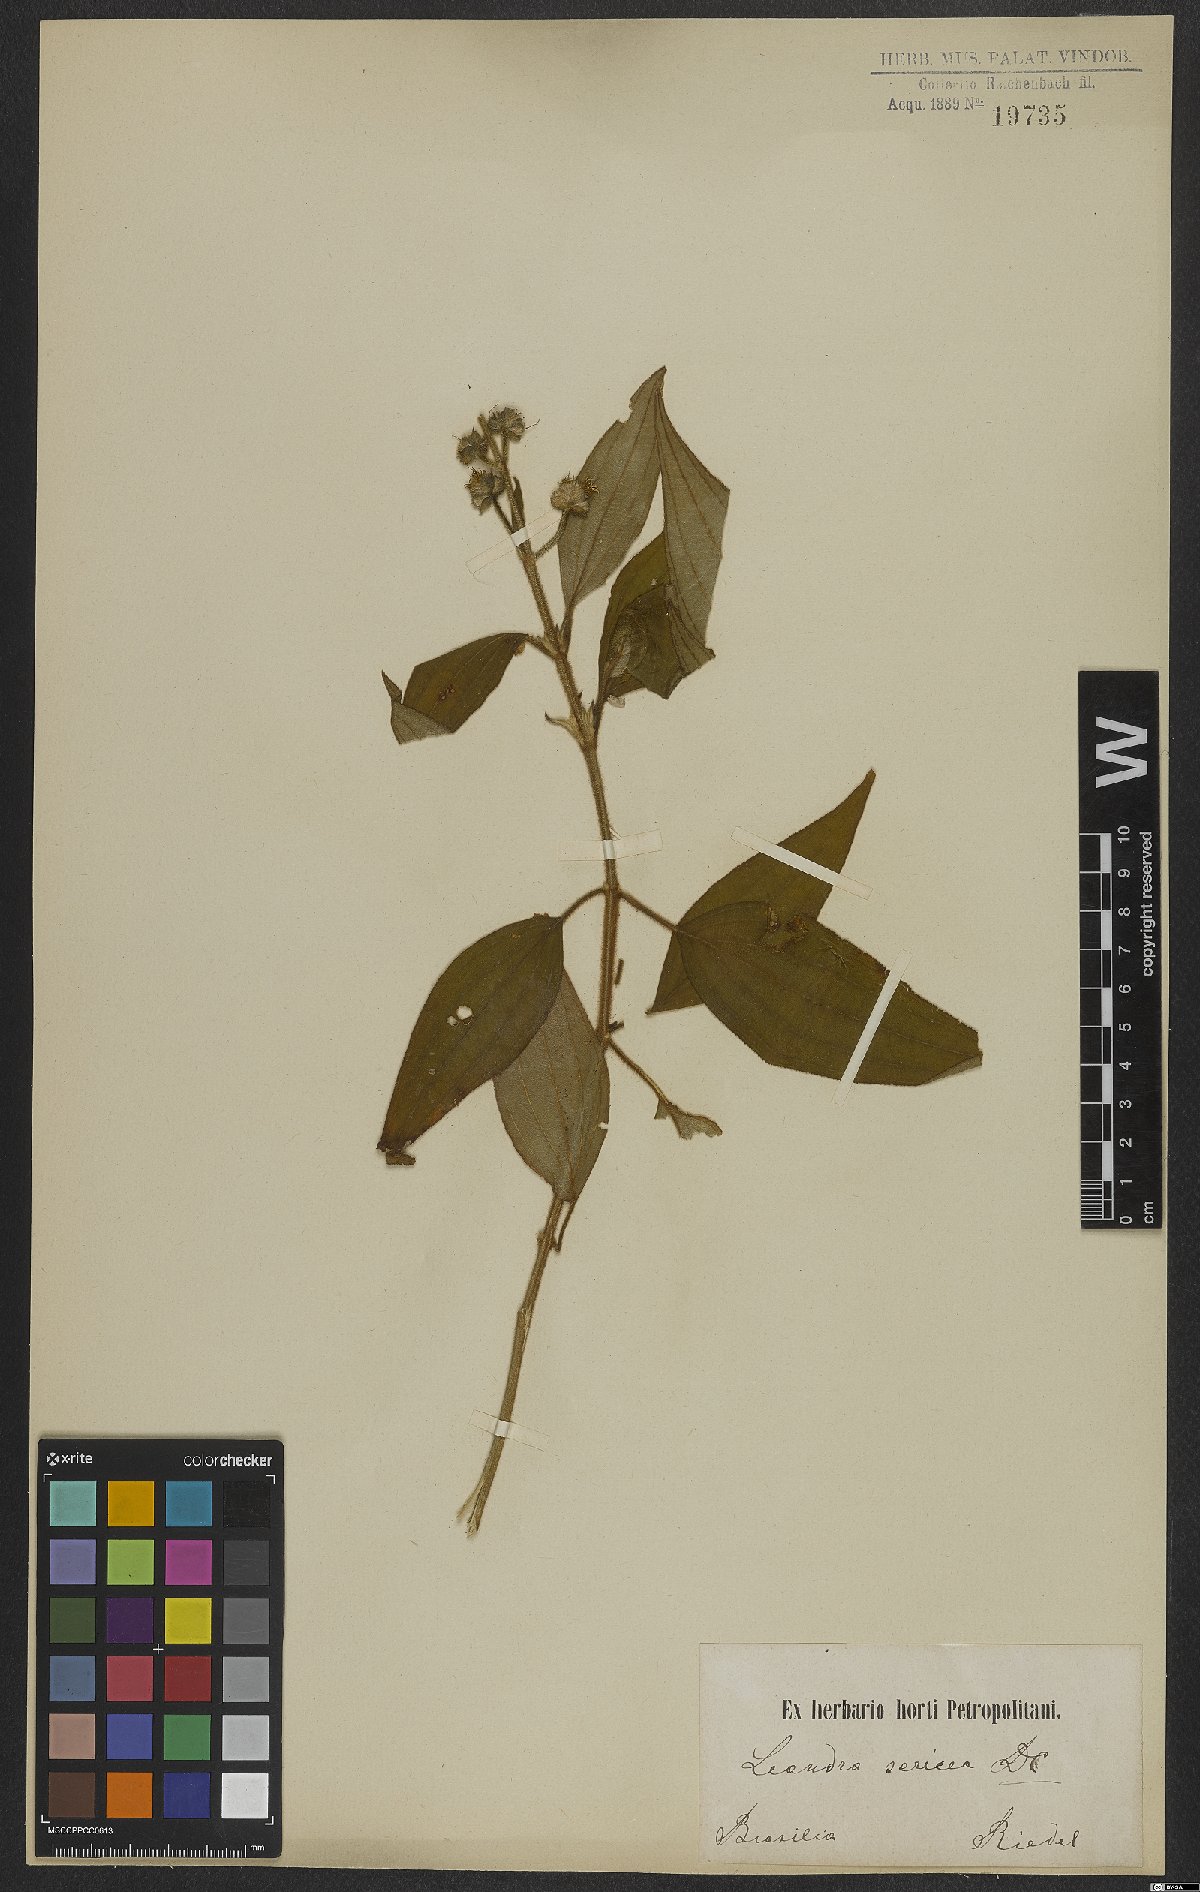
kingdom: Plantae
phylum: Tracheophyta
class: Magnoliopsida
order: Myrtales
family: Melastomataceae
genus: Miconia
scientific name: Miconia raddii
